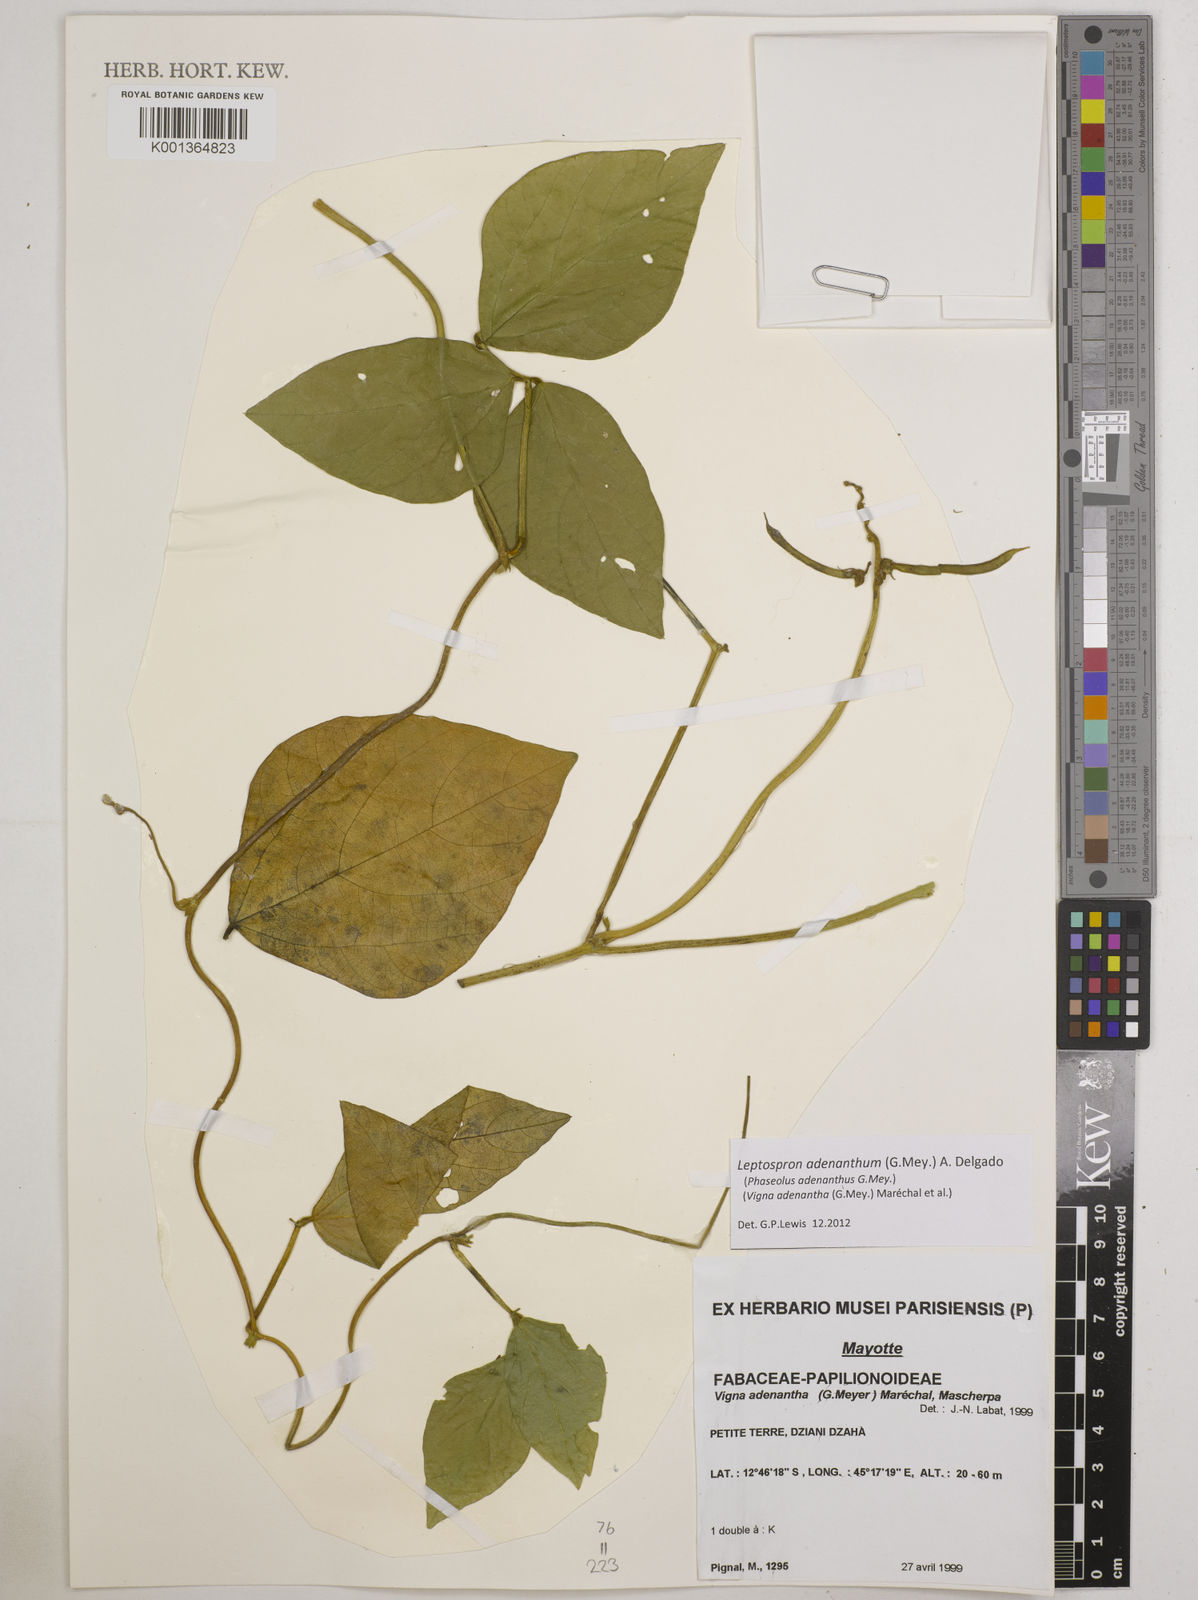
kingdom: Plantae
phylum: Tracheophyta
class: Magnoliopsida
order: Fabales
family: Fabaceae
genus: Leptospron
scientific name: Leptospron adenanthum
